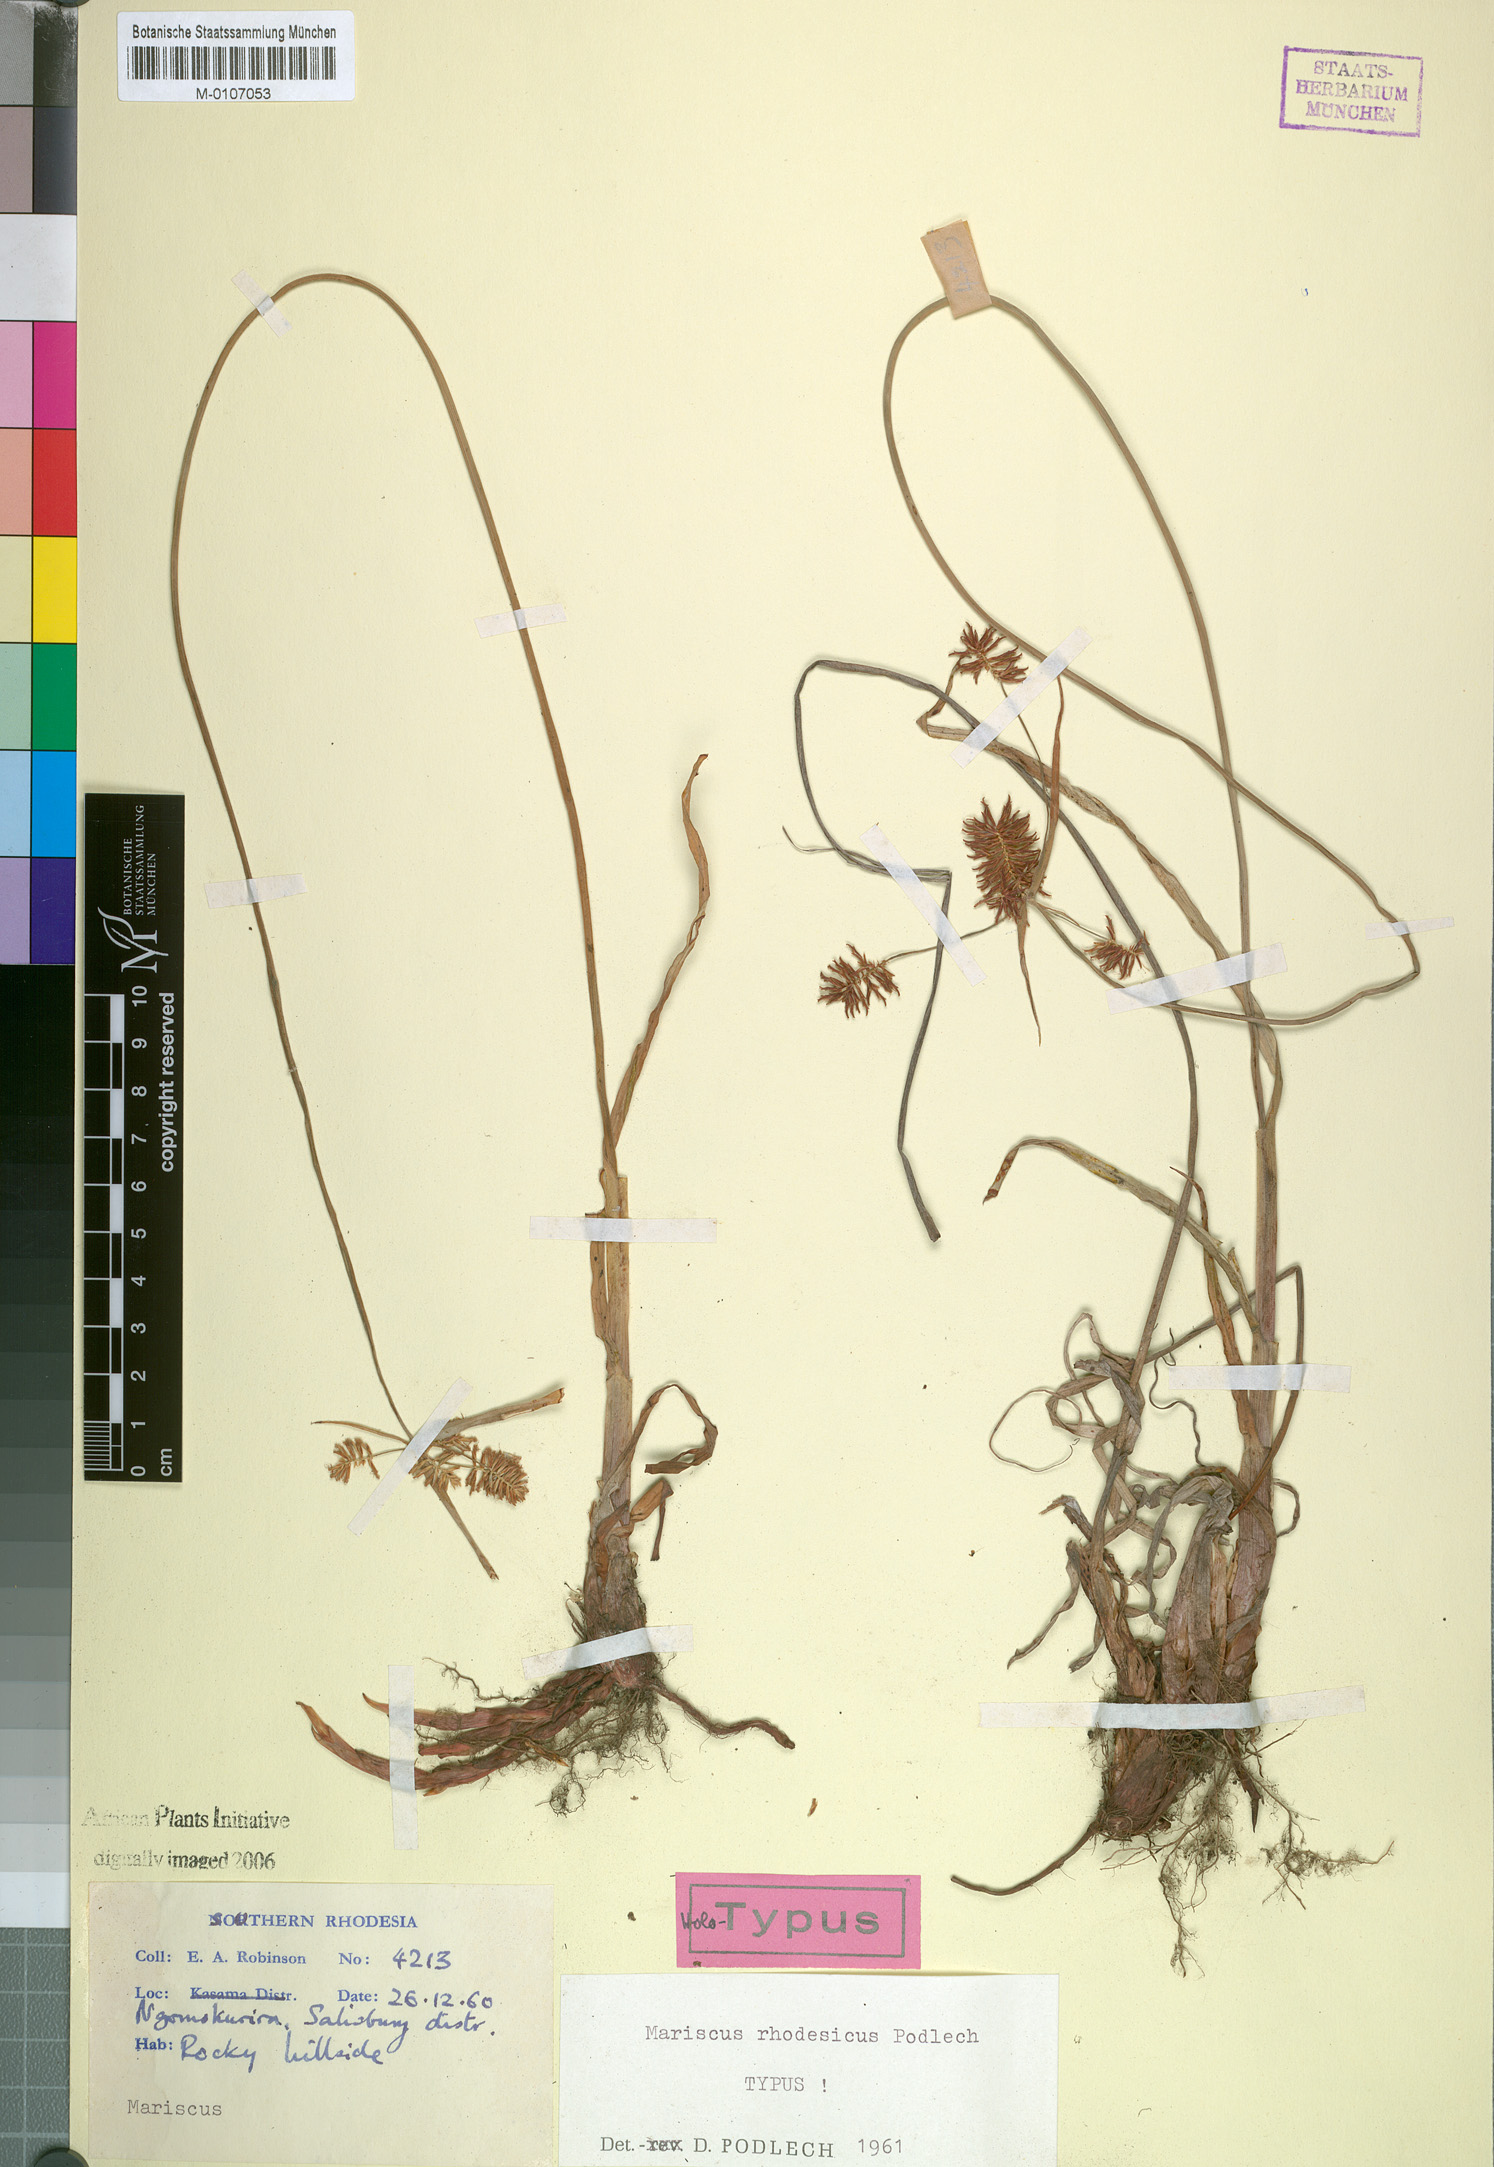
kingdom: Plantae
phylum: Tracheophyta
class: Liliopsida
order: Poales
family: Cyperaceae
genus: Cyperus
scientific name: Cyperus hirtellus
